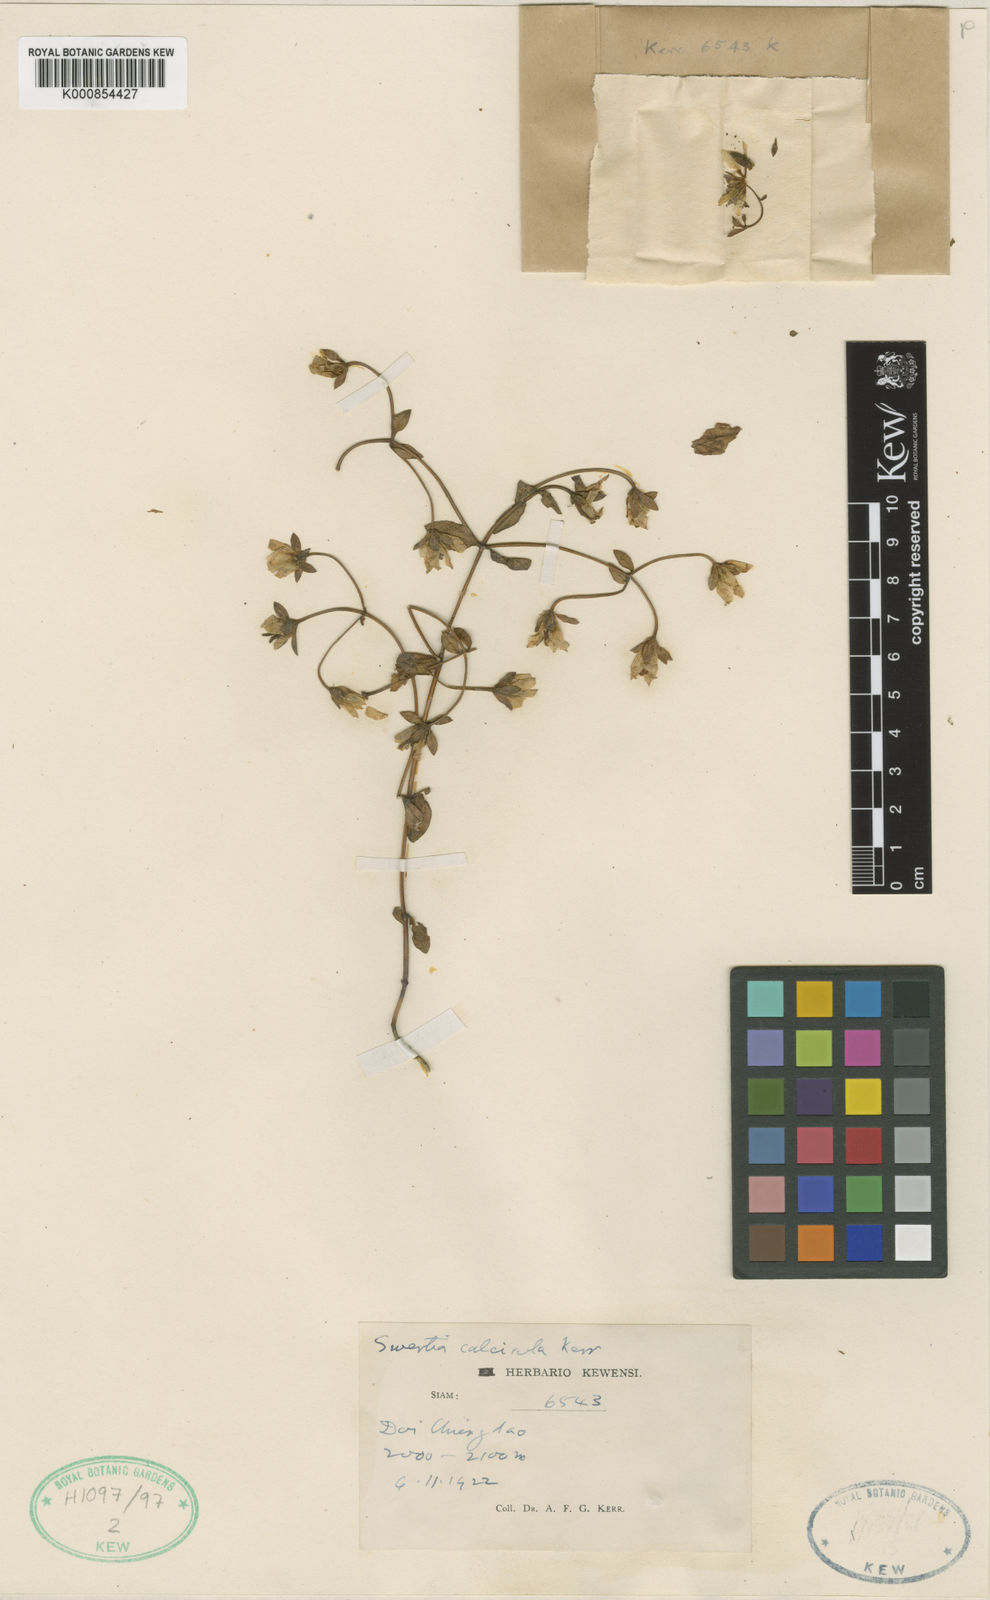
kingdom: Plantae
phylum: Tracheophyta
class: Magnoliopsida
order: Gentianales
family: Gentianaceae
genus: Swertia
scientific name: Swertia calcicola
